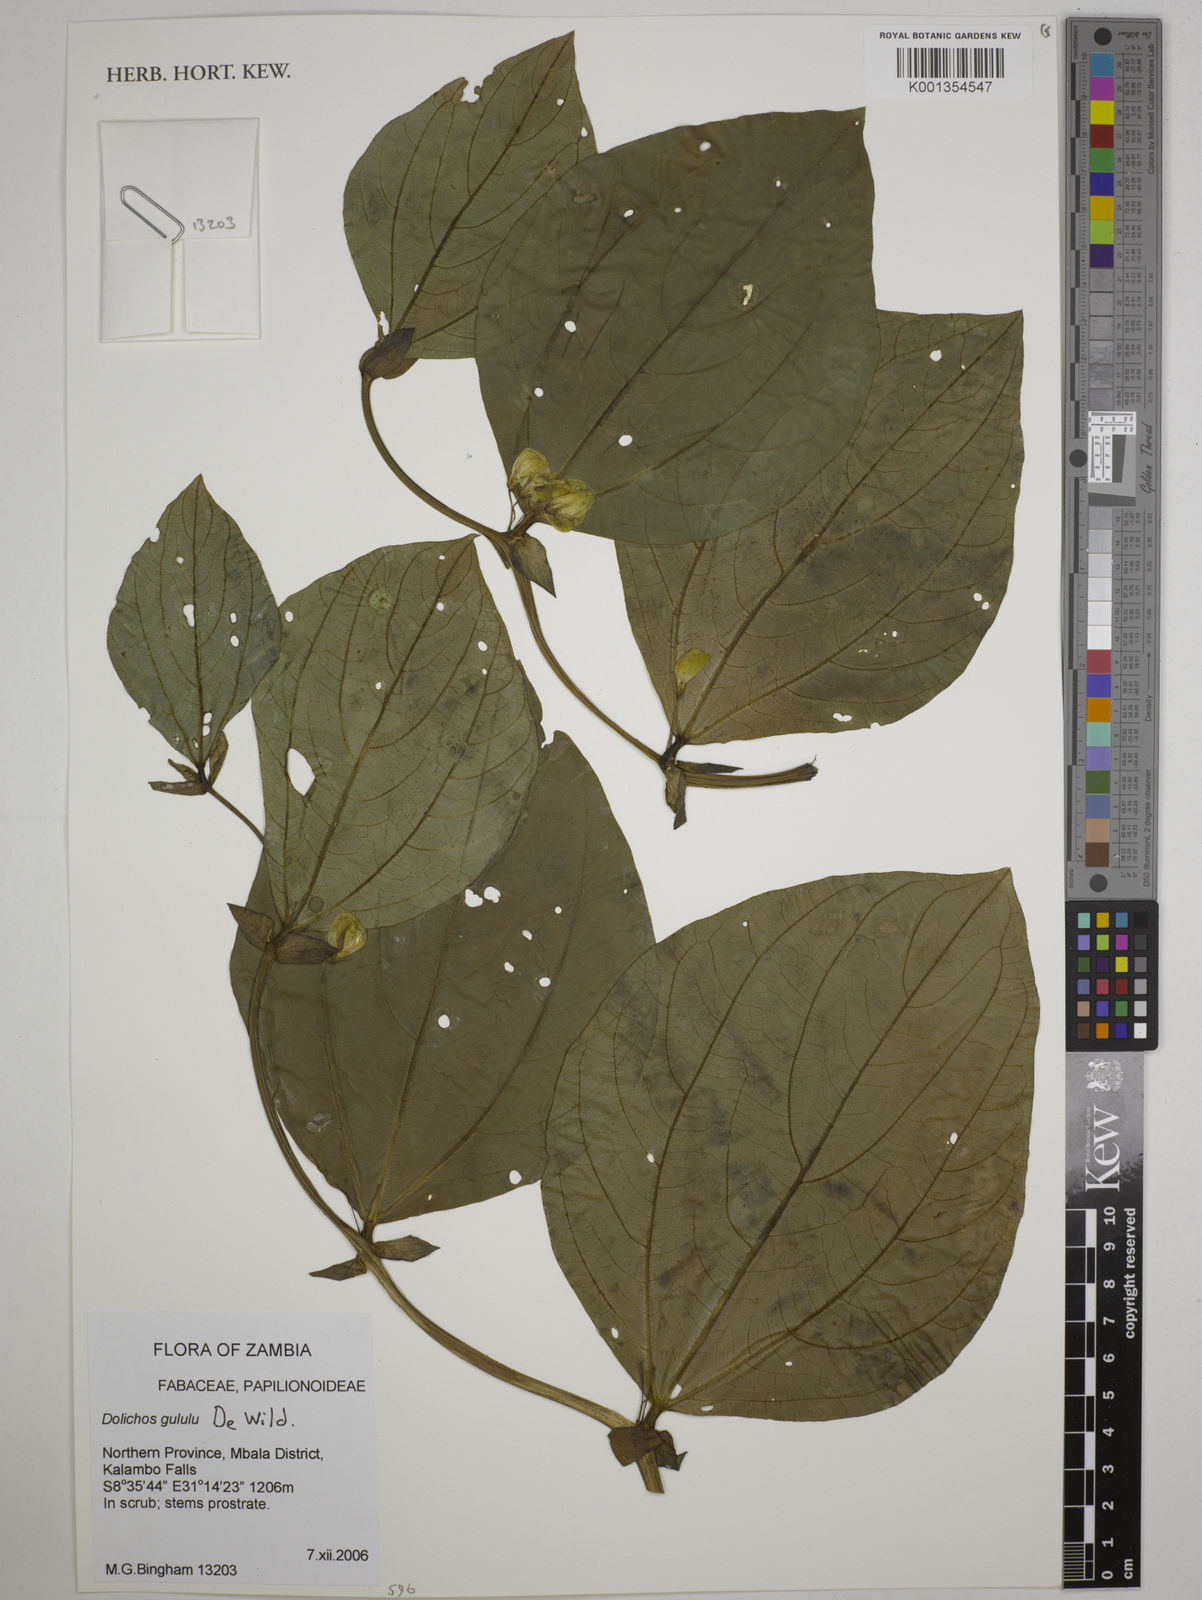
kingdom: Plantae
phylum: Tracheophyta
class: Magnoliopsida
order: Fabales
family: Fabaceae
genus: Dolichos
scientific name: Dolichos gululu
